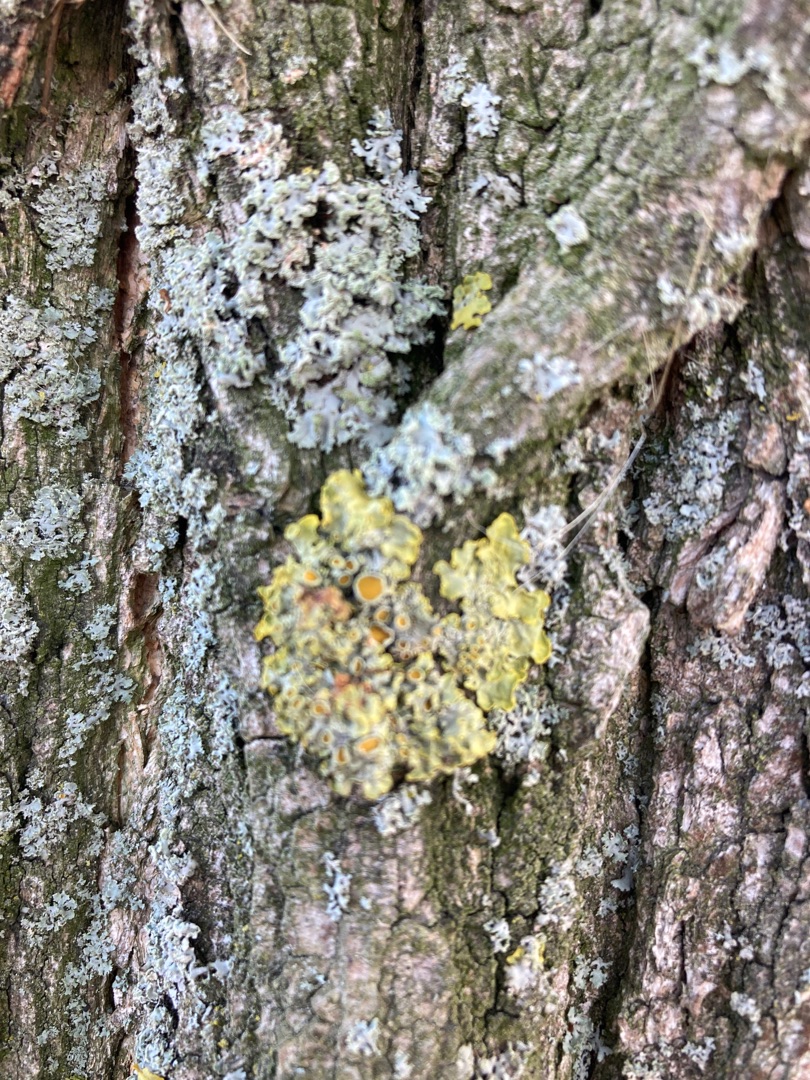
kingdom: Fungi
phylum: Ascomycota
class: Lecanoromycetes
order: Teloschistales
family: Teloschistaceae
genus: Xanthoria
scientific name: Xanthoria parietina
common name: Almindelig væggelav
